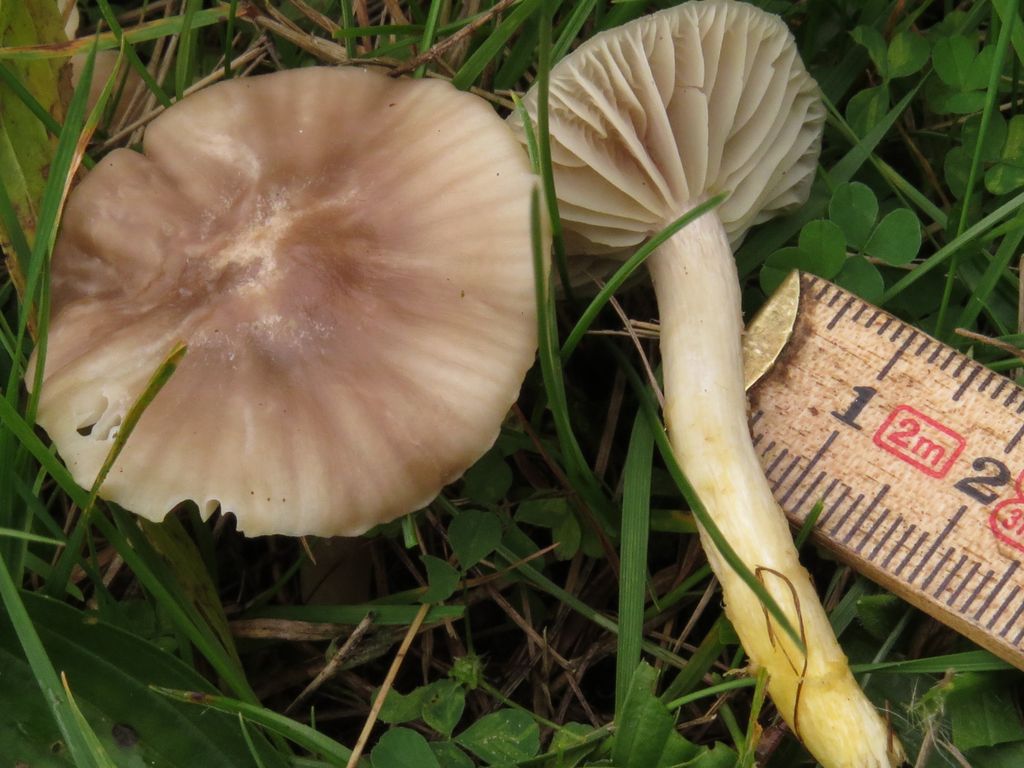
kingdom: Fungi
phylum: Basidiomycota
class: Agaricomycetes
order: Agaricales
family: Hygrophoraceae
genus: Cuphophyllus
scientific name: Cuphophyllus flavipes
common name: gulfodet vokshat
